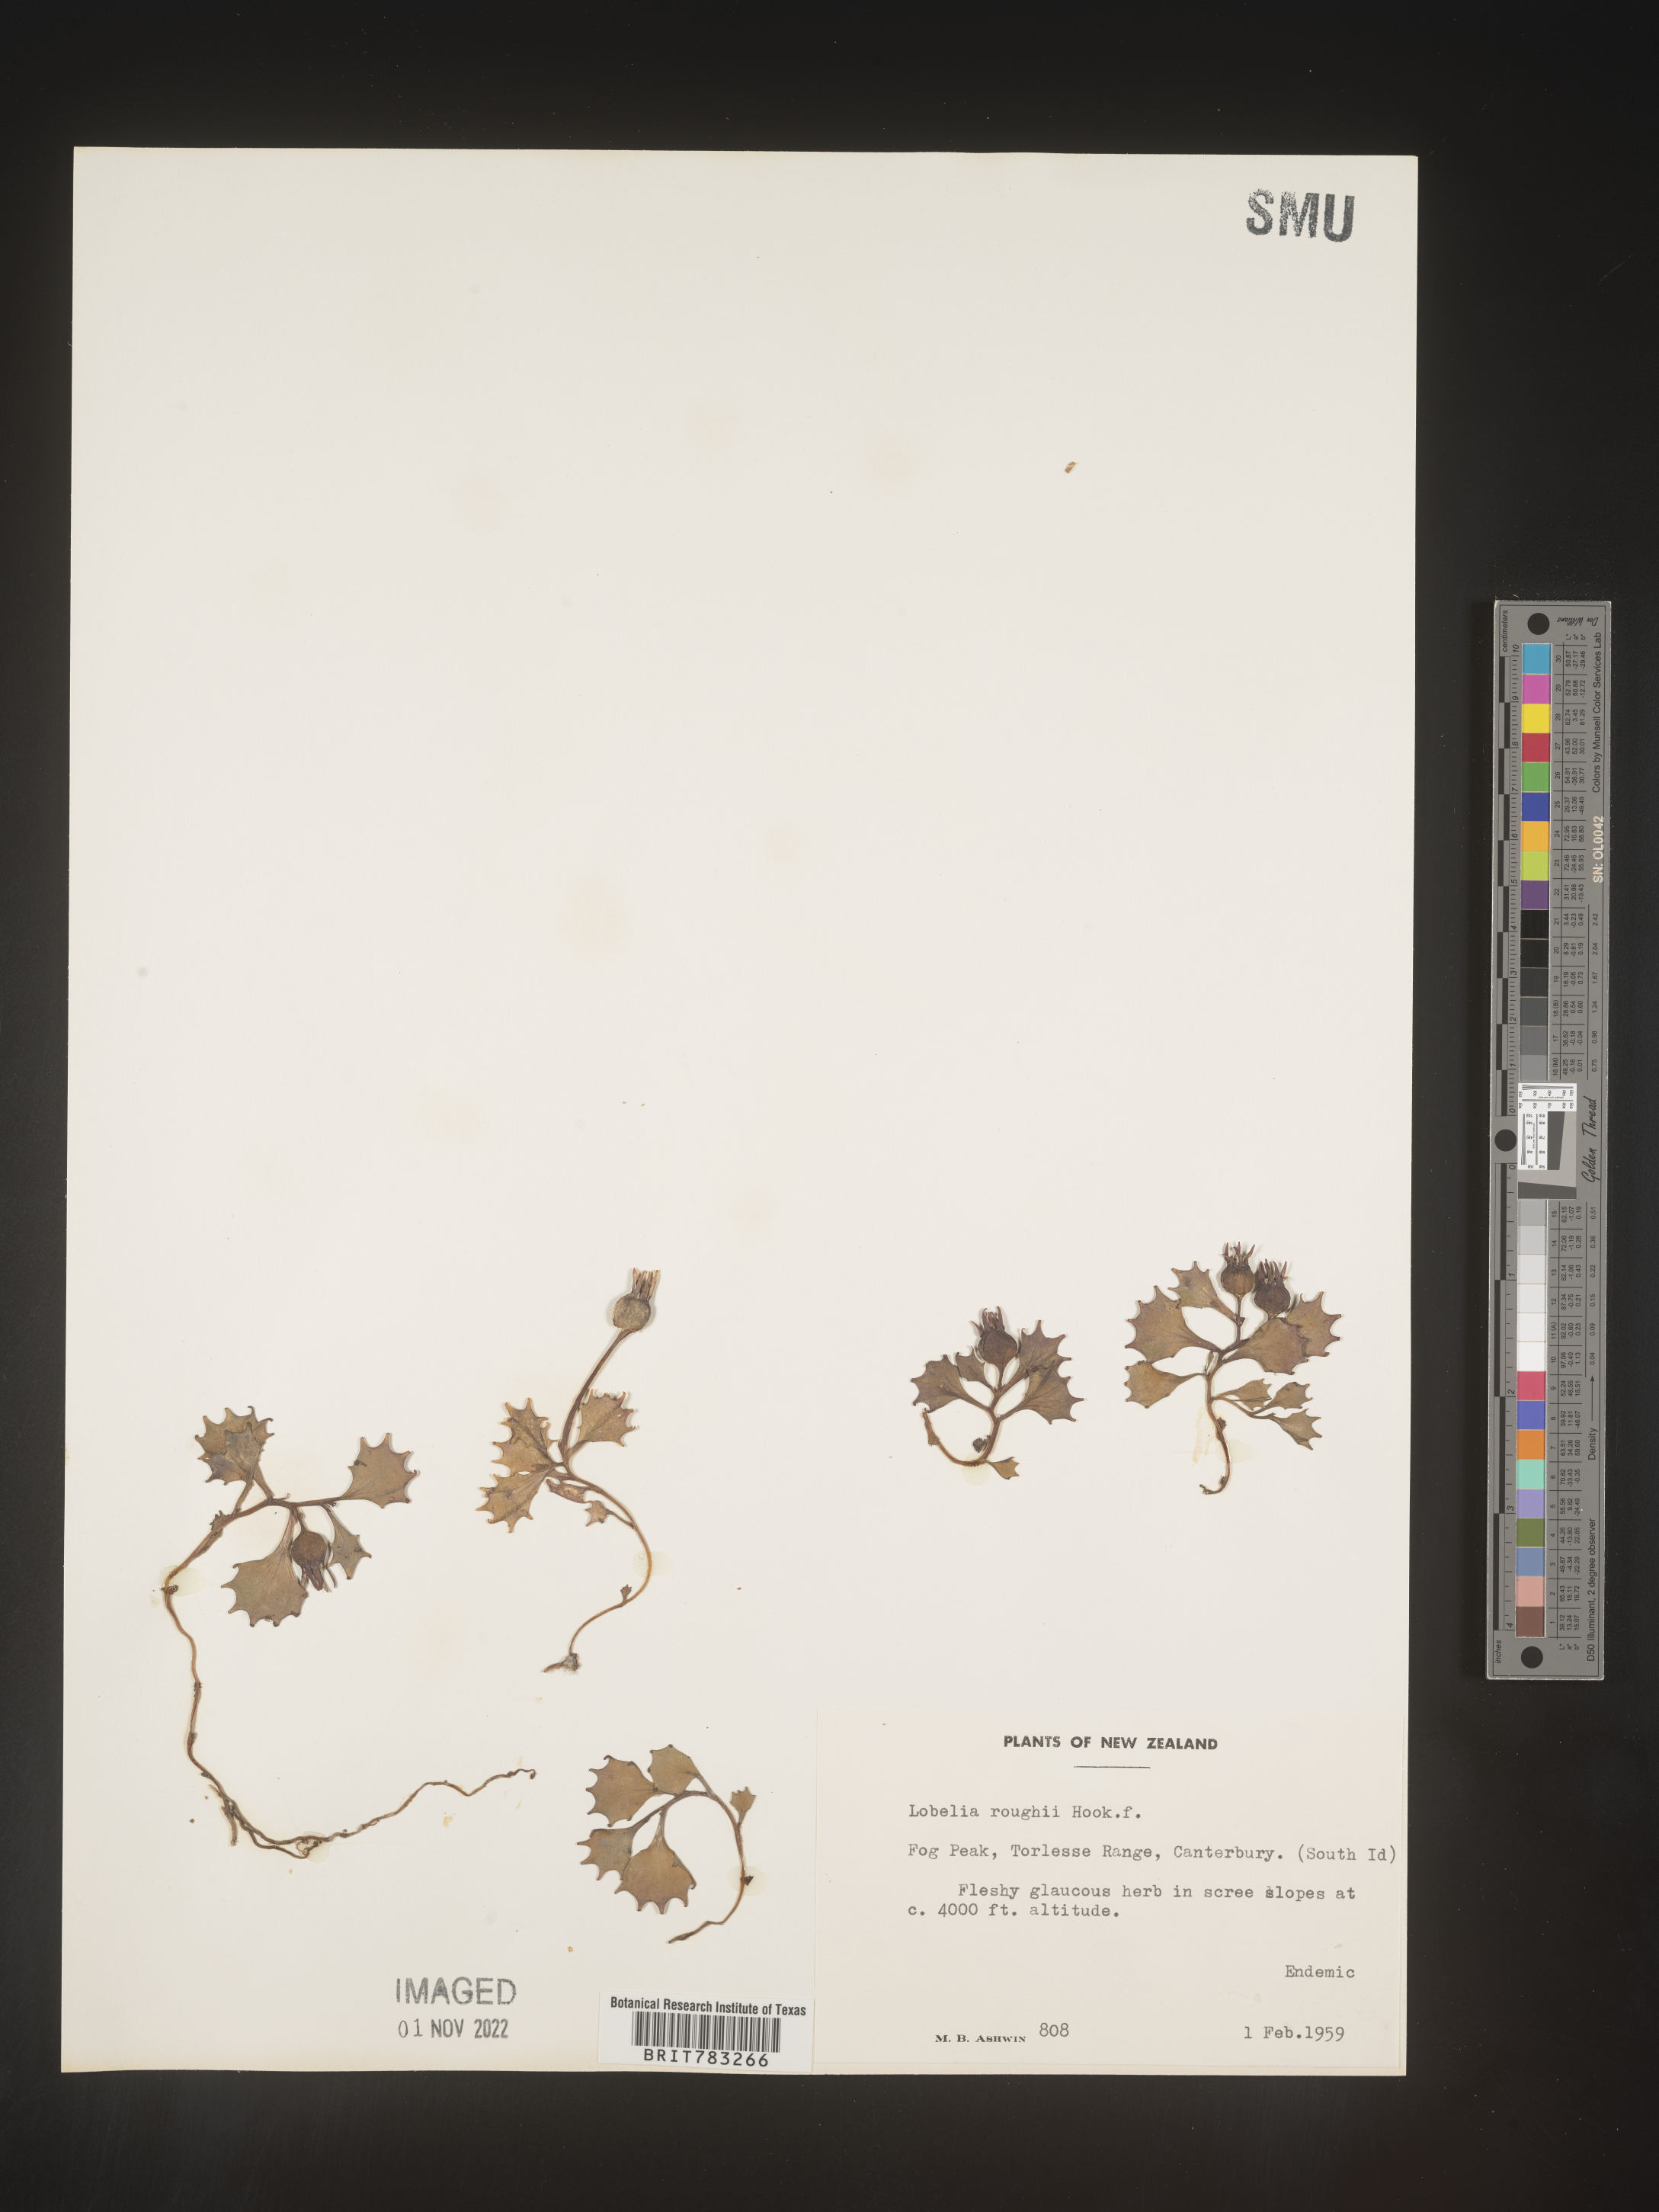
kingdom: Plantae
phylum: Tracheophyta
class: Magnoliopsida
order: Asterales
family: Campanulaceae
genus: Lobelia
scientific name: Lobelia
